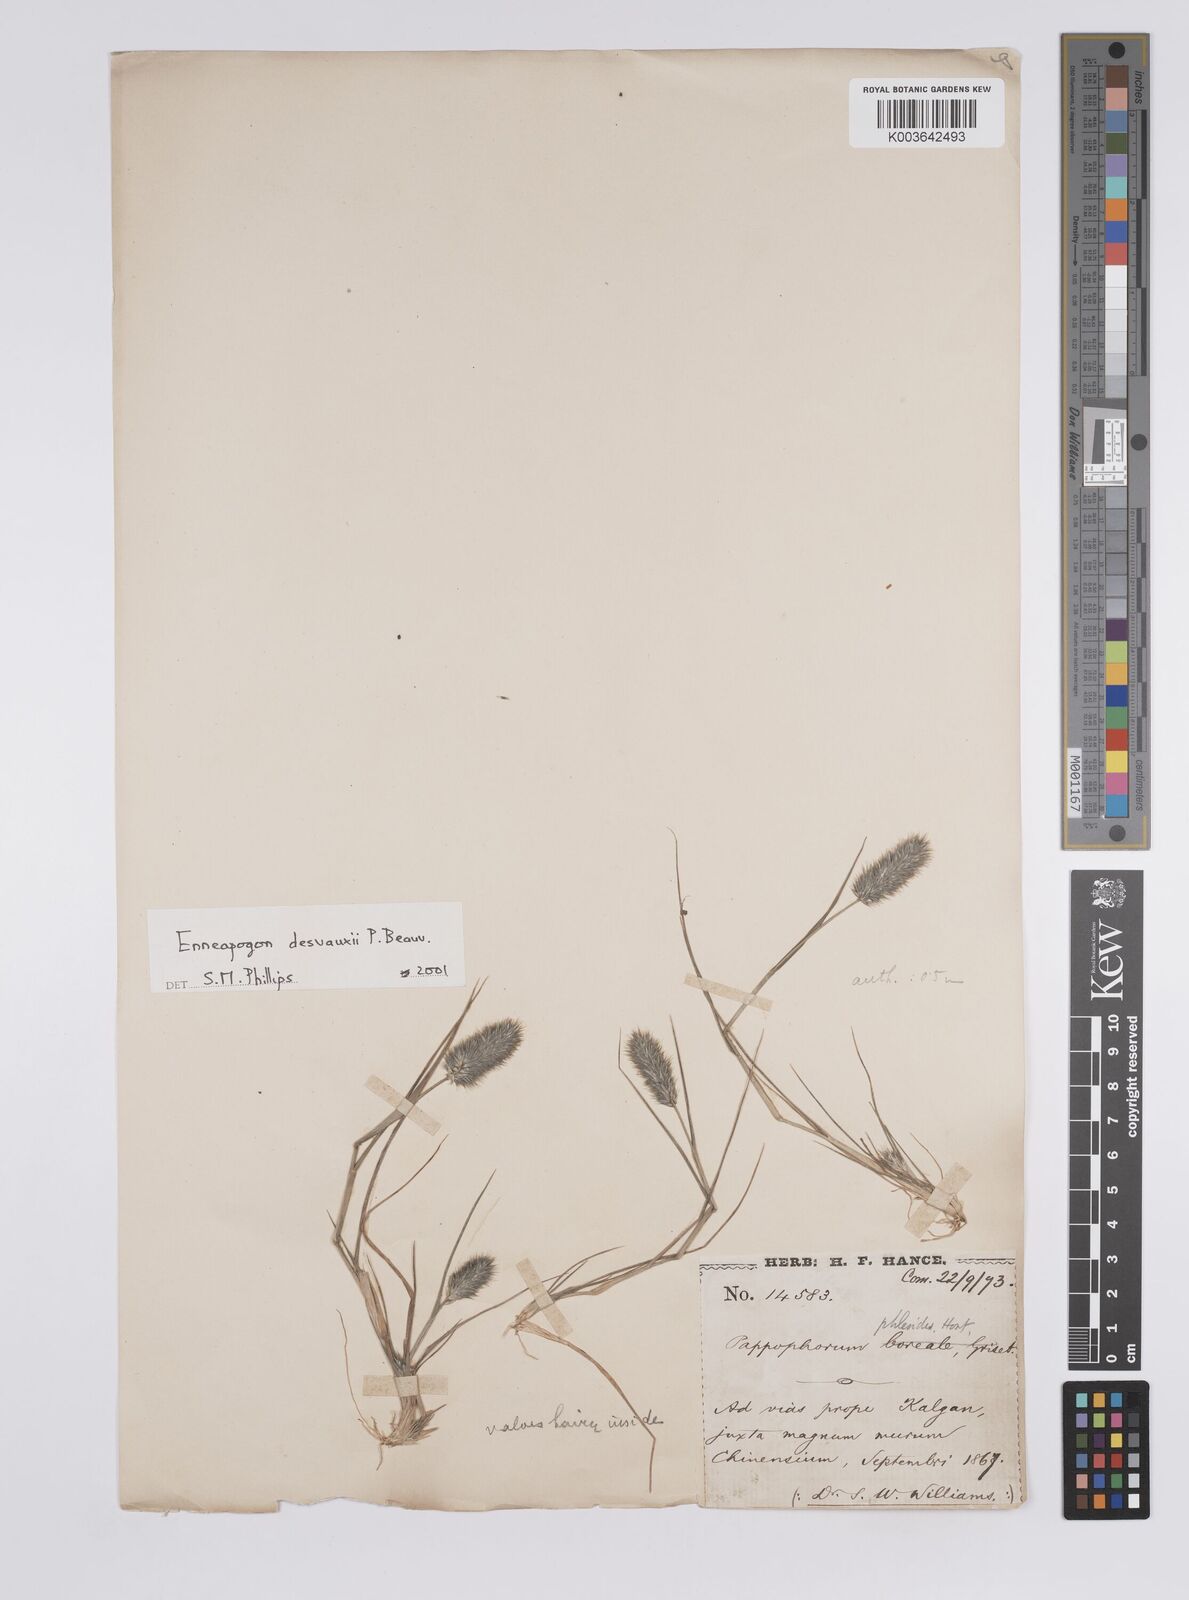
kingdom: Plantae
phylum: Tracheophyta
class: Liliopsida
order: Poales
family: Poaceae
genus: Enneapogon
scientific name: Enneapogon desvauxii
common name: Feather pappus grass
